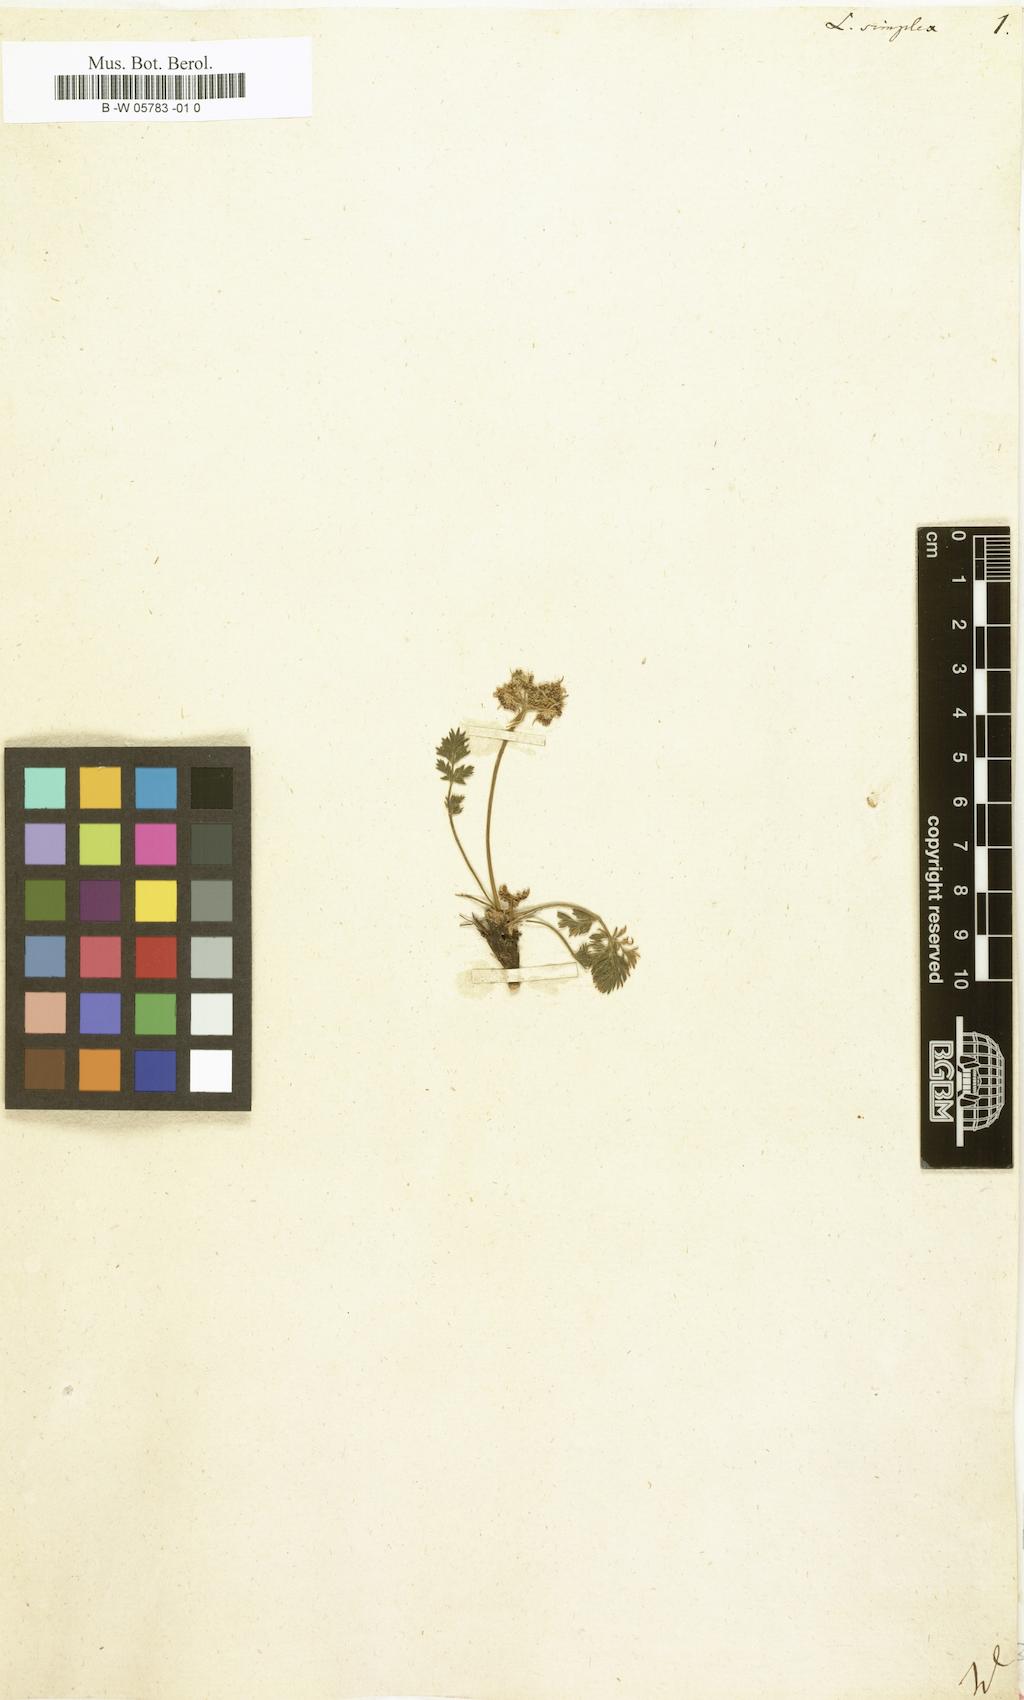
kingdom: Plantae
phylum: Tracheophyta
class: Magnoliopsida
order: Apiales
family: Apiaceae
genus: Pachypleurum
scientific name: Pachypleurum mutellinoides
